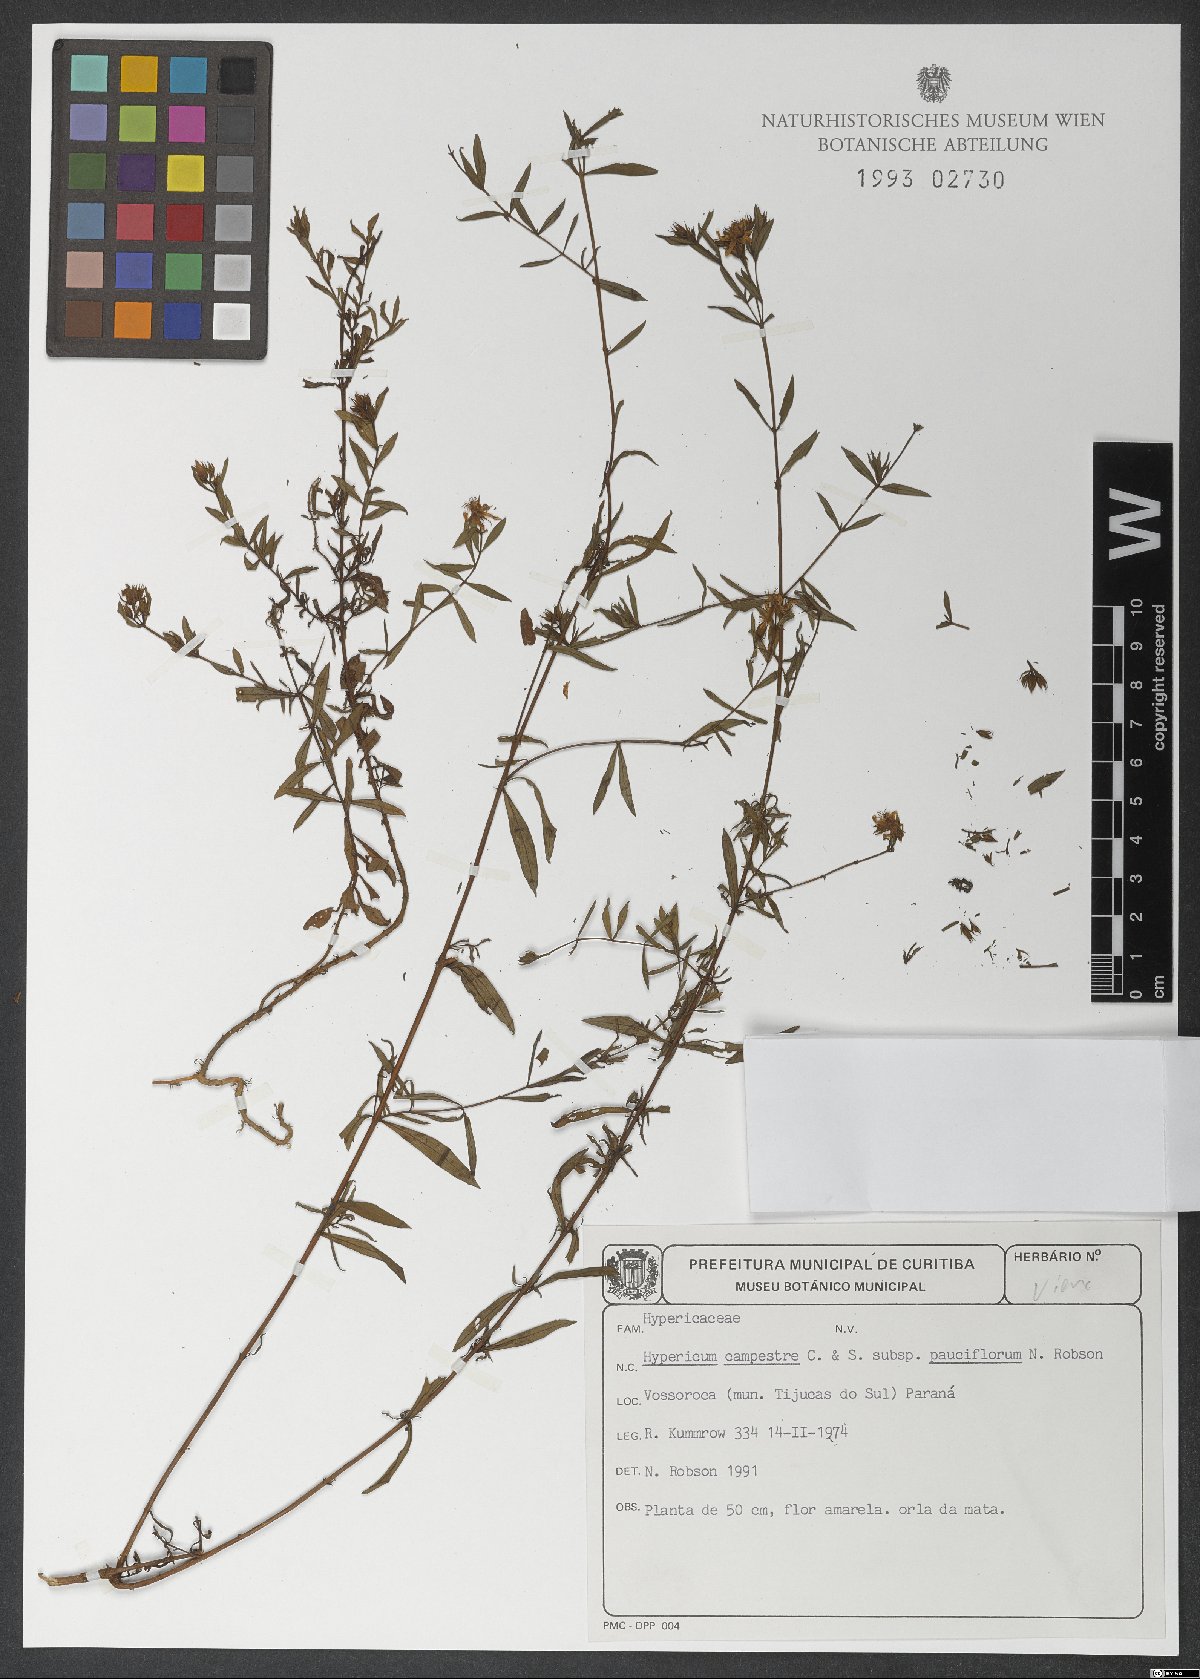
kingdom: Plantae
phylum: Tracheophyta
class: Magnoliopsida
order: Malpighiales
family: Hypericaceae
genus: Hypericum
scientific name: Hypericum campestre
